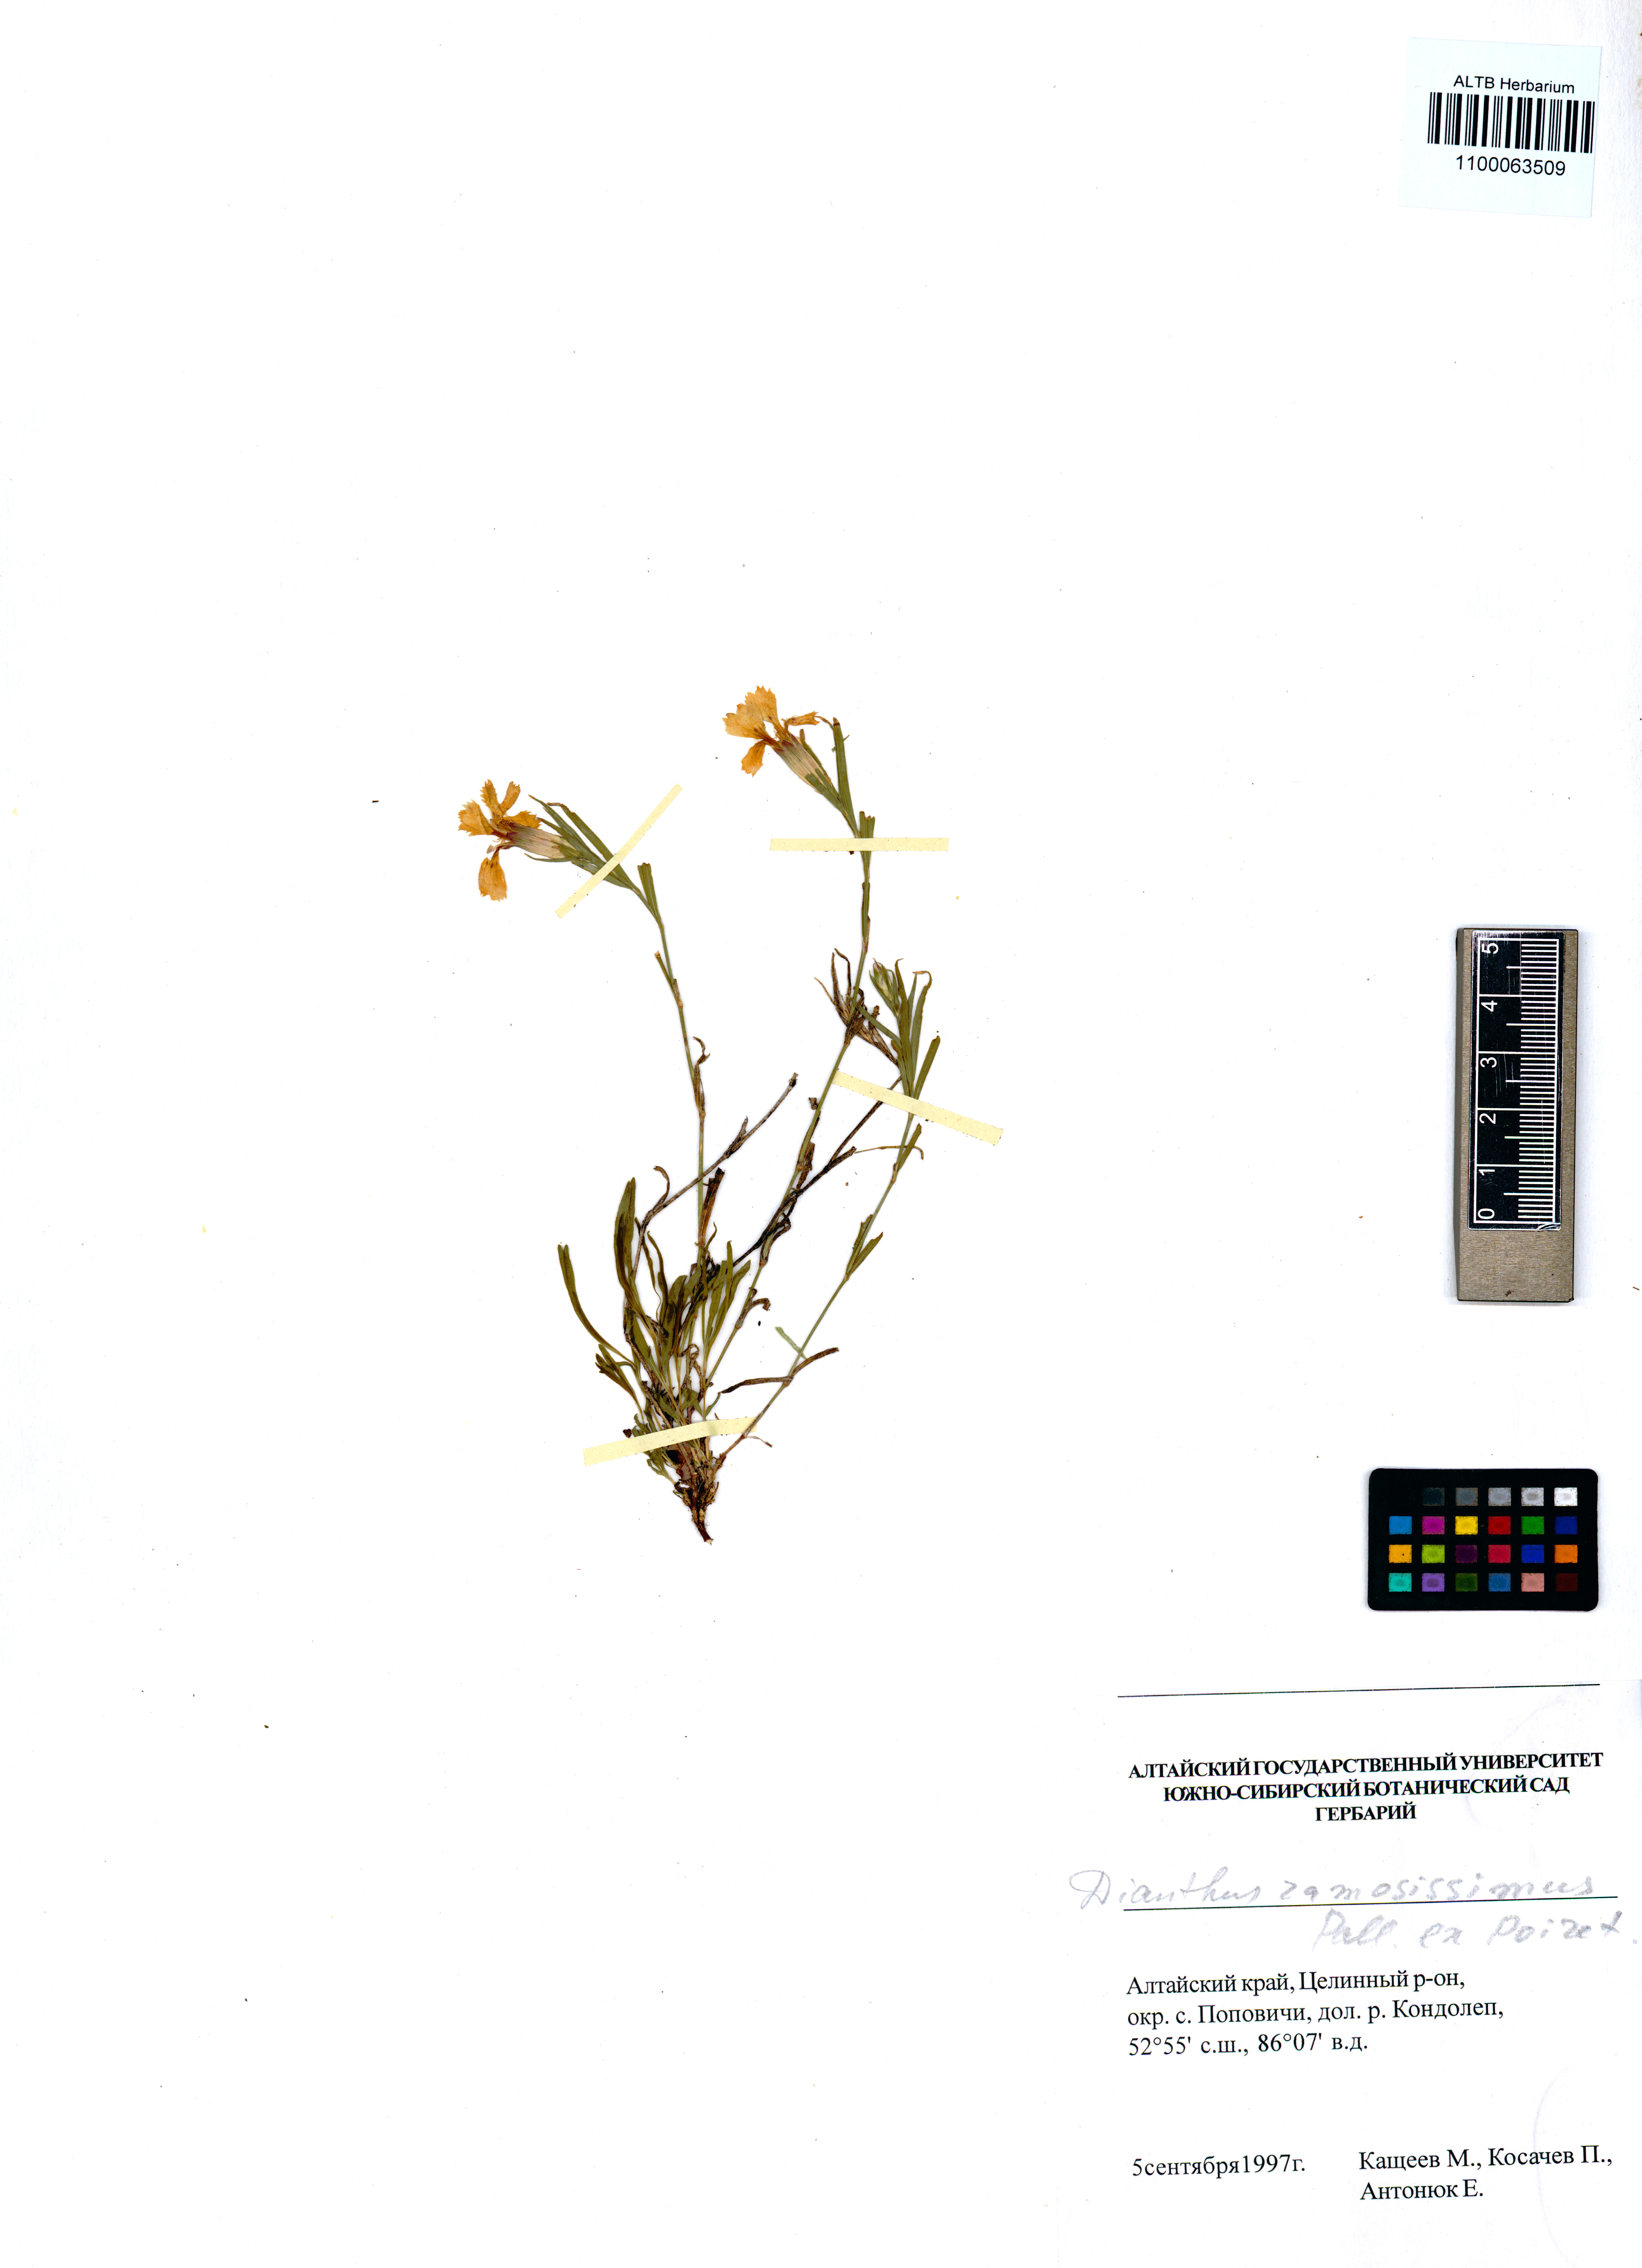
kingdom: Plantae
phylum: Tracheophyta
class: Magnoliopsida
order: Caryophyllales
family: Caryophyllaceae
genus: Dianthus
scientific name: Dianthus ramosissimus
